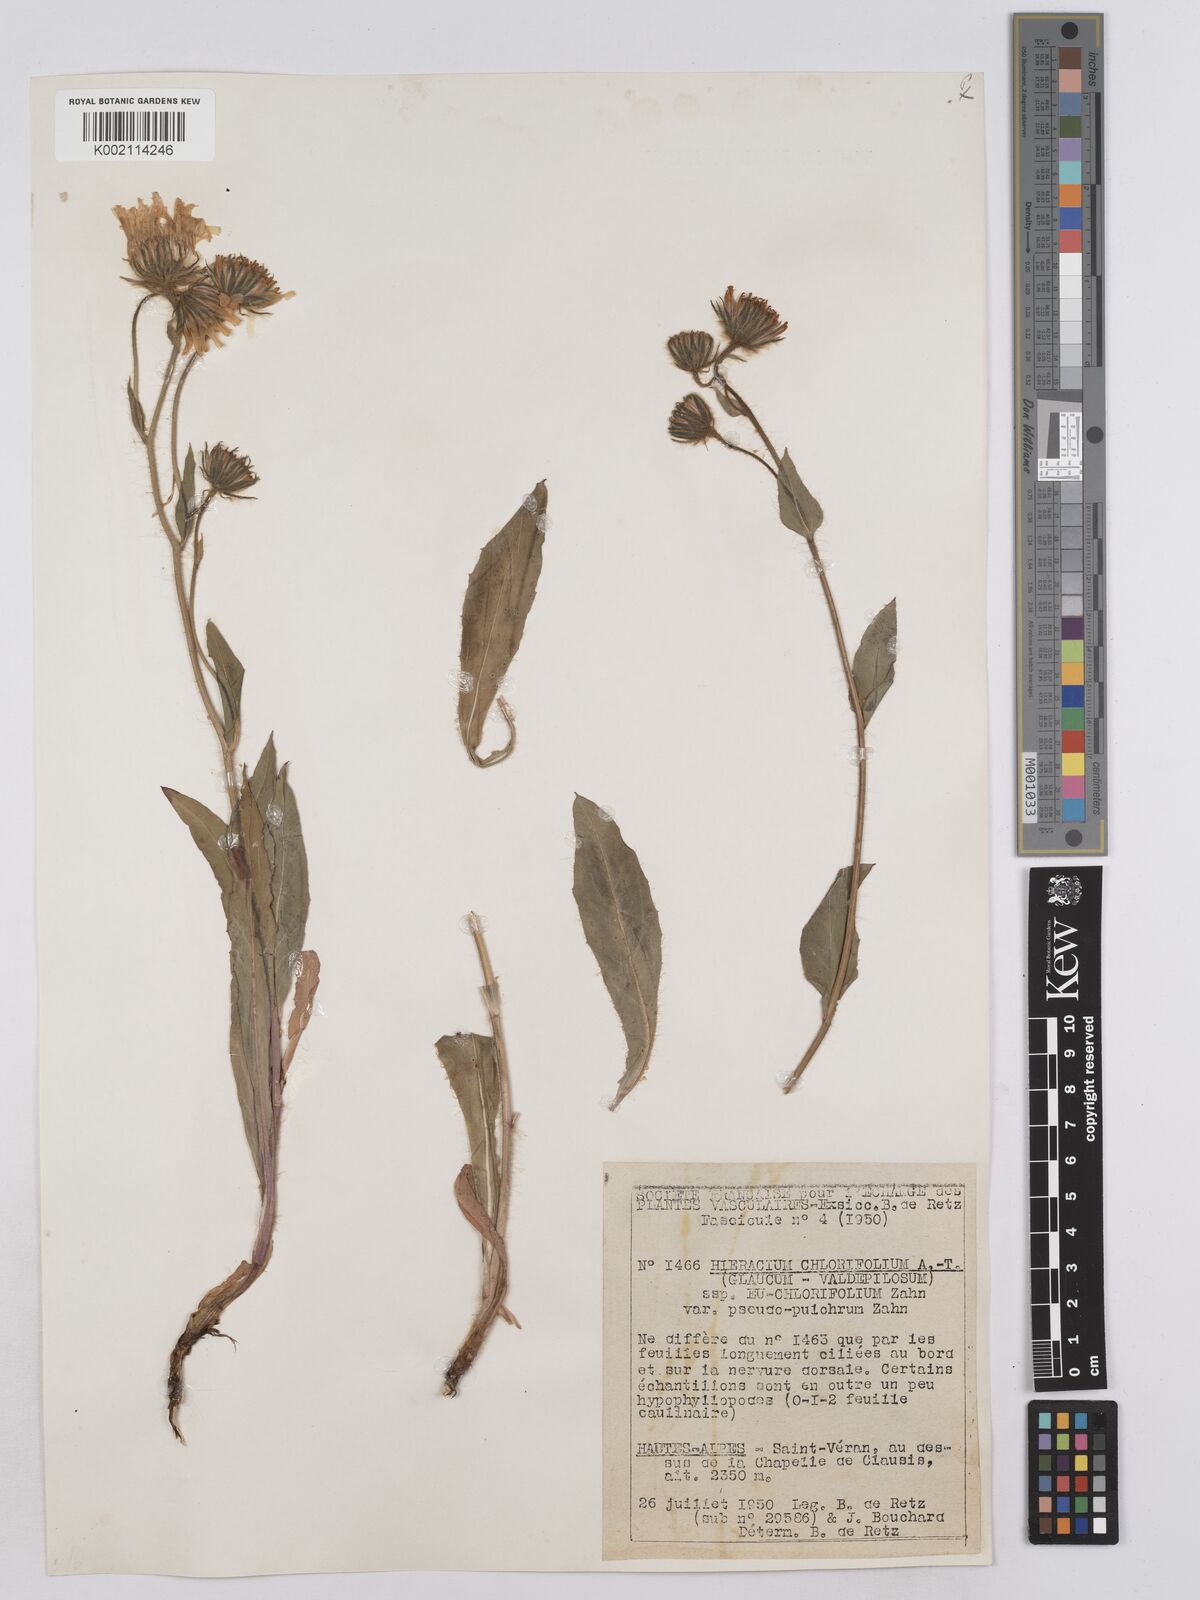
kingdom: Plantae
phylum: Tracheophyta
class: Magnoliopsida
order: Asterales
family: Asteraceae
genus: Hieracium
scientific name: Hieracium chlorifolium
